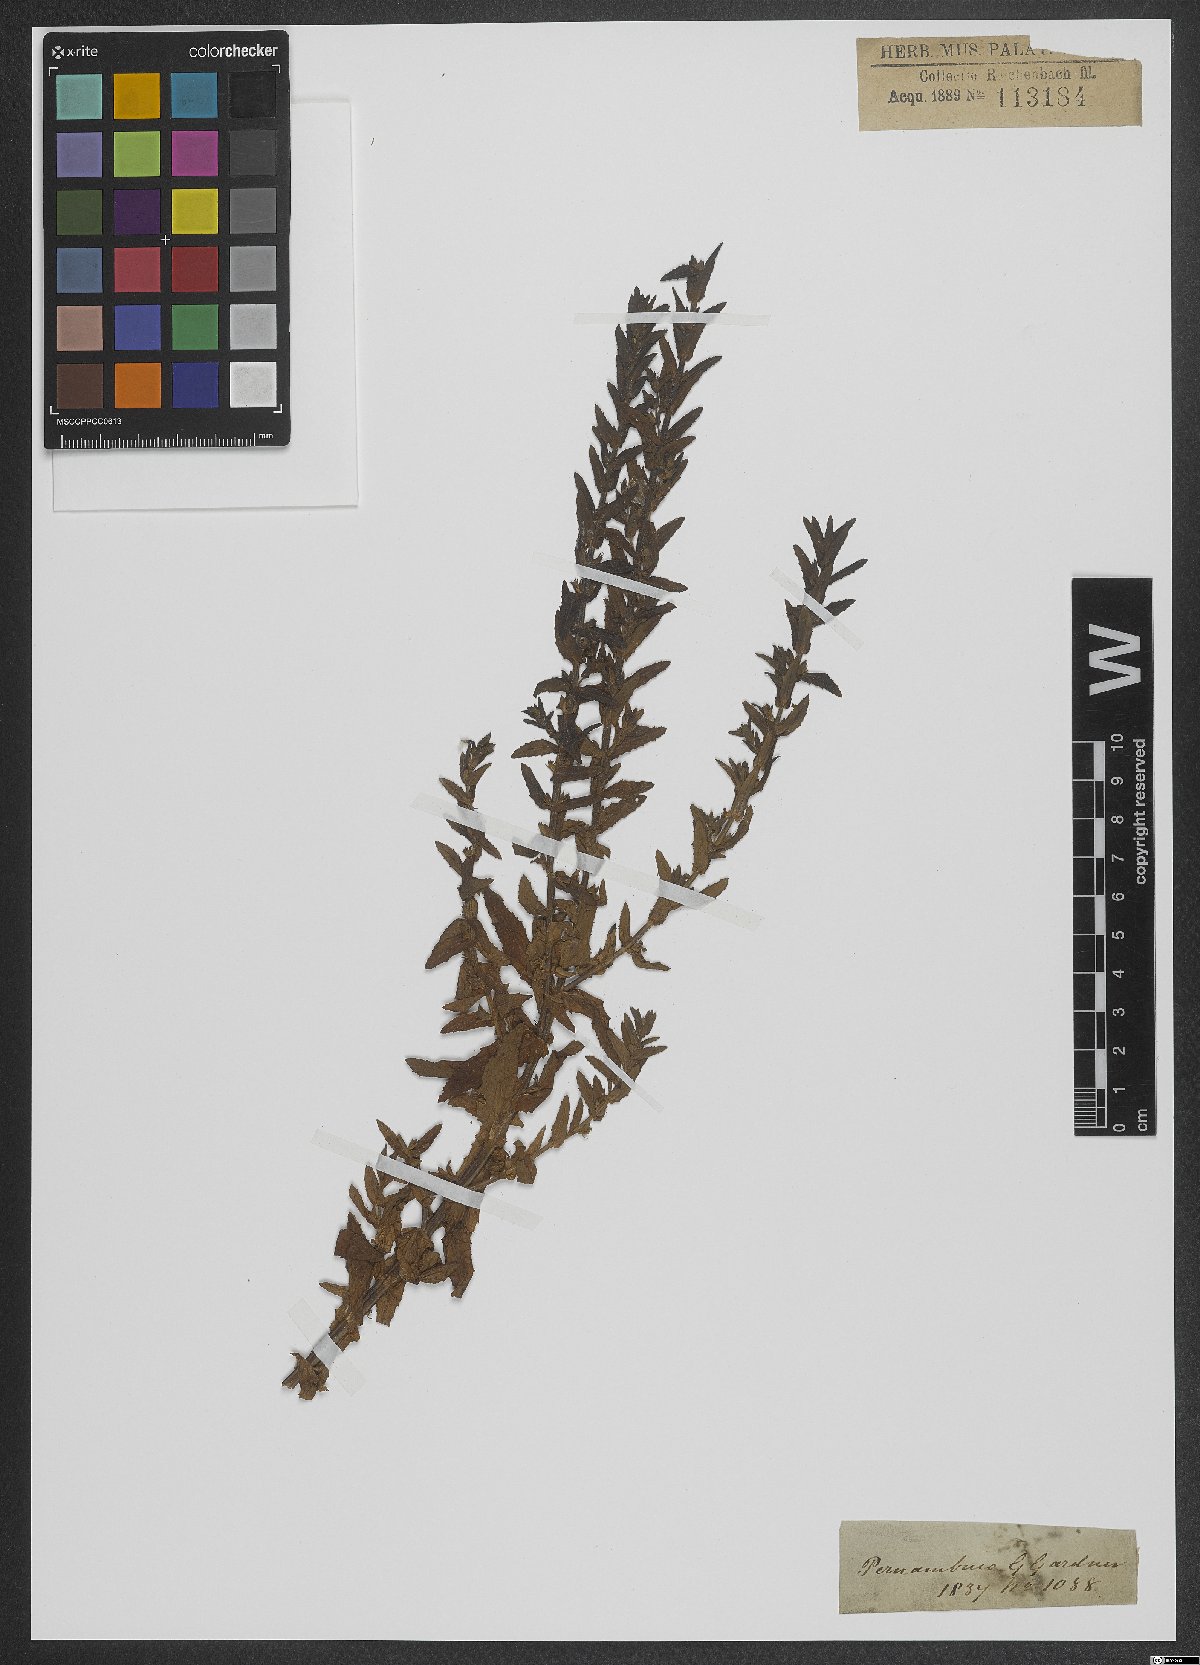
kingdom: Plantae
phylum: Tracheophyta
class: Magnoliopsida
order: Lamiales
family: Scrophulariaceae
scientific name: Scrophulariaceae
